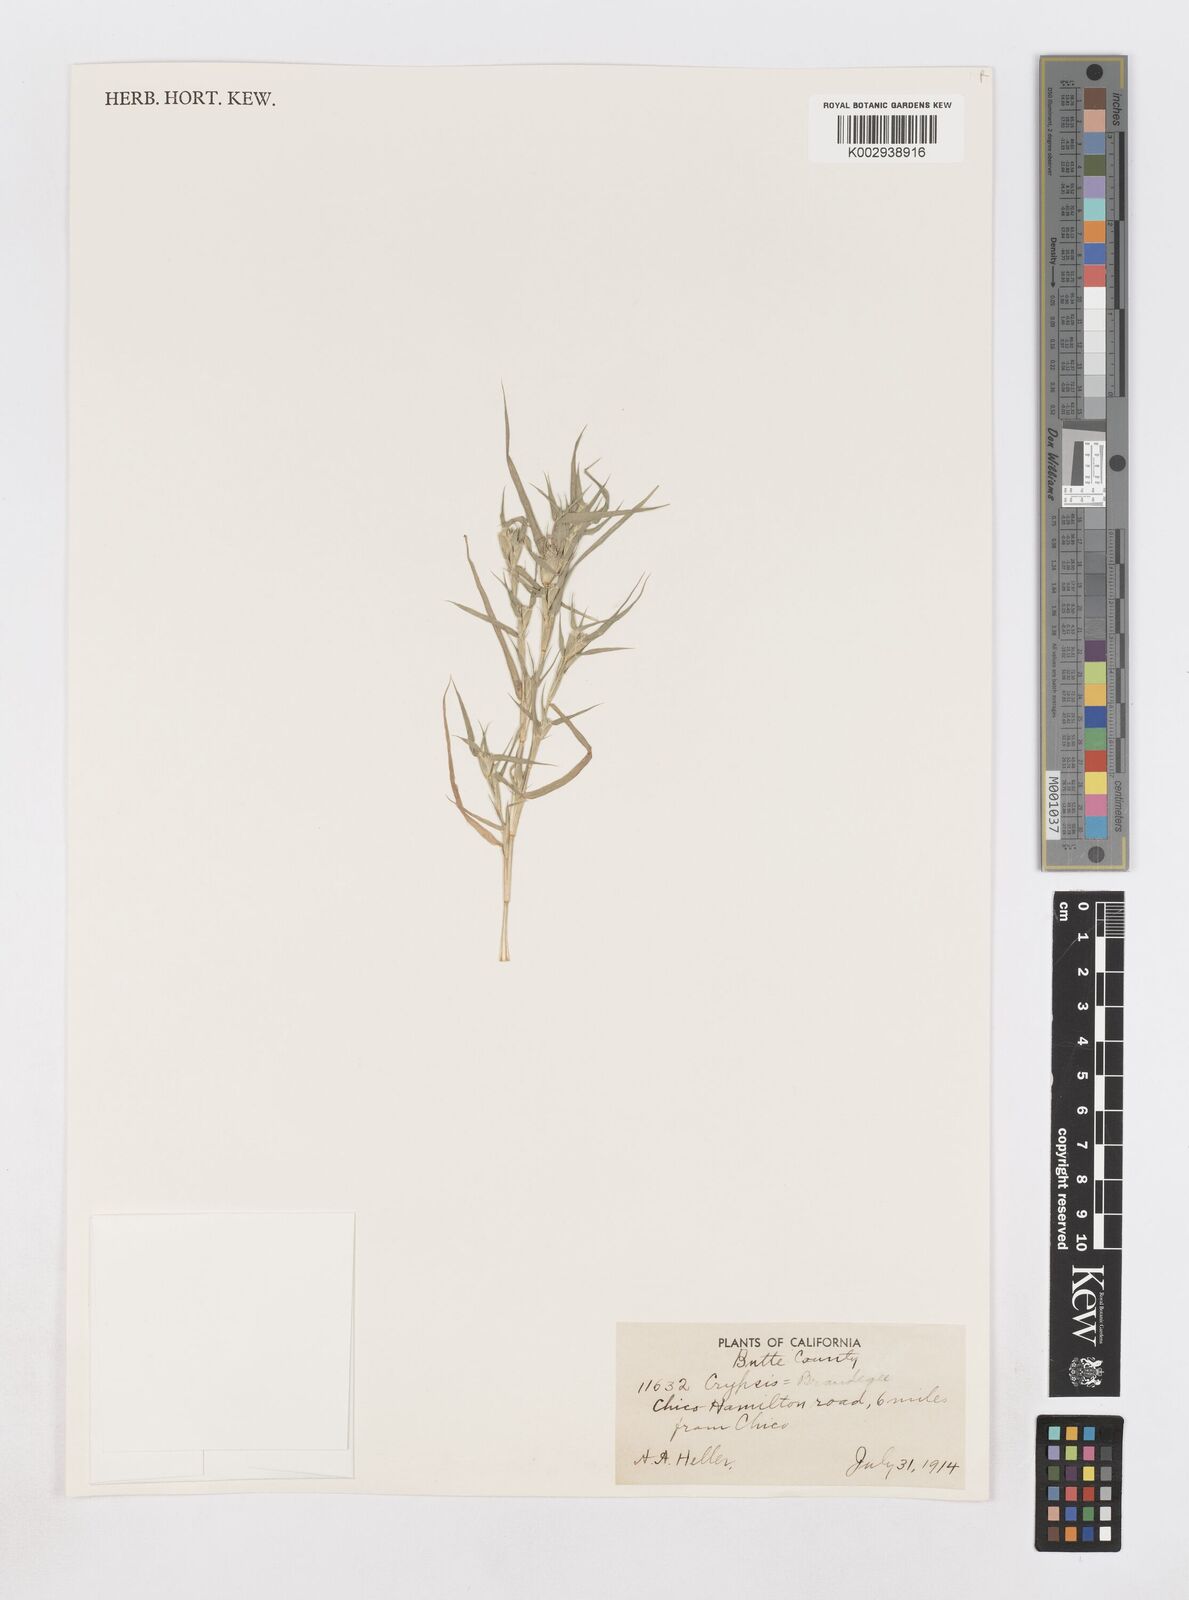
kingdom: Animalia
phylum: Arthropoda
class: Insecta
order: Coleoptera
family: Tenebrionidae
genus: Crypsis
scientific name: Crypsis
